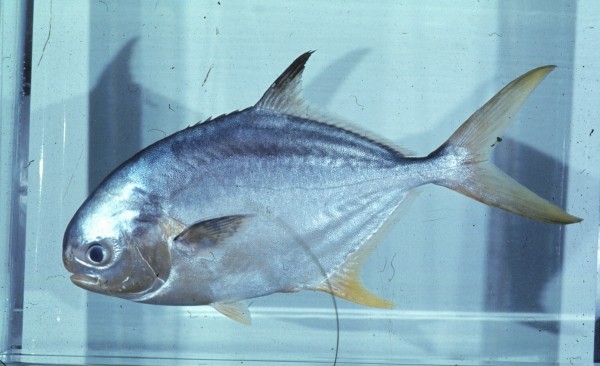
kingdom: Animalia
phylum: Chordata
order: Perciformes
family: Carangidae
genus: Trachinotus
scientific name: Trachinotus africanus
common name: Southern pompano
